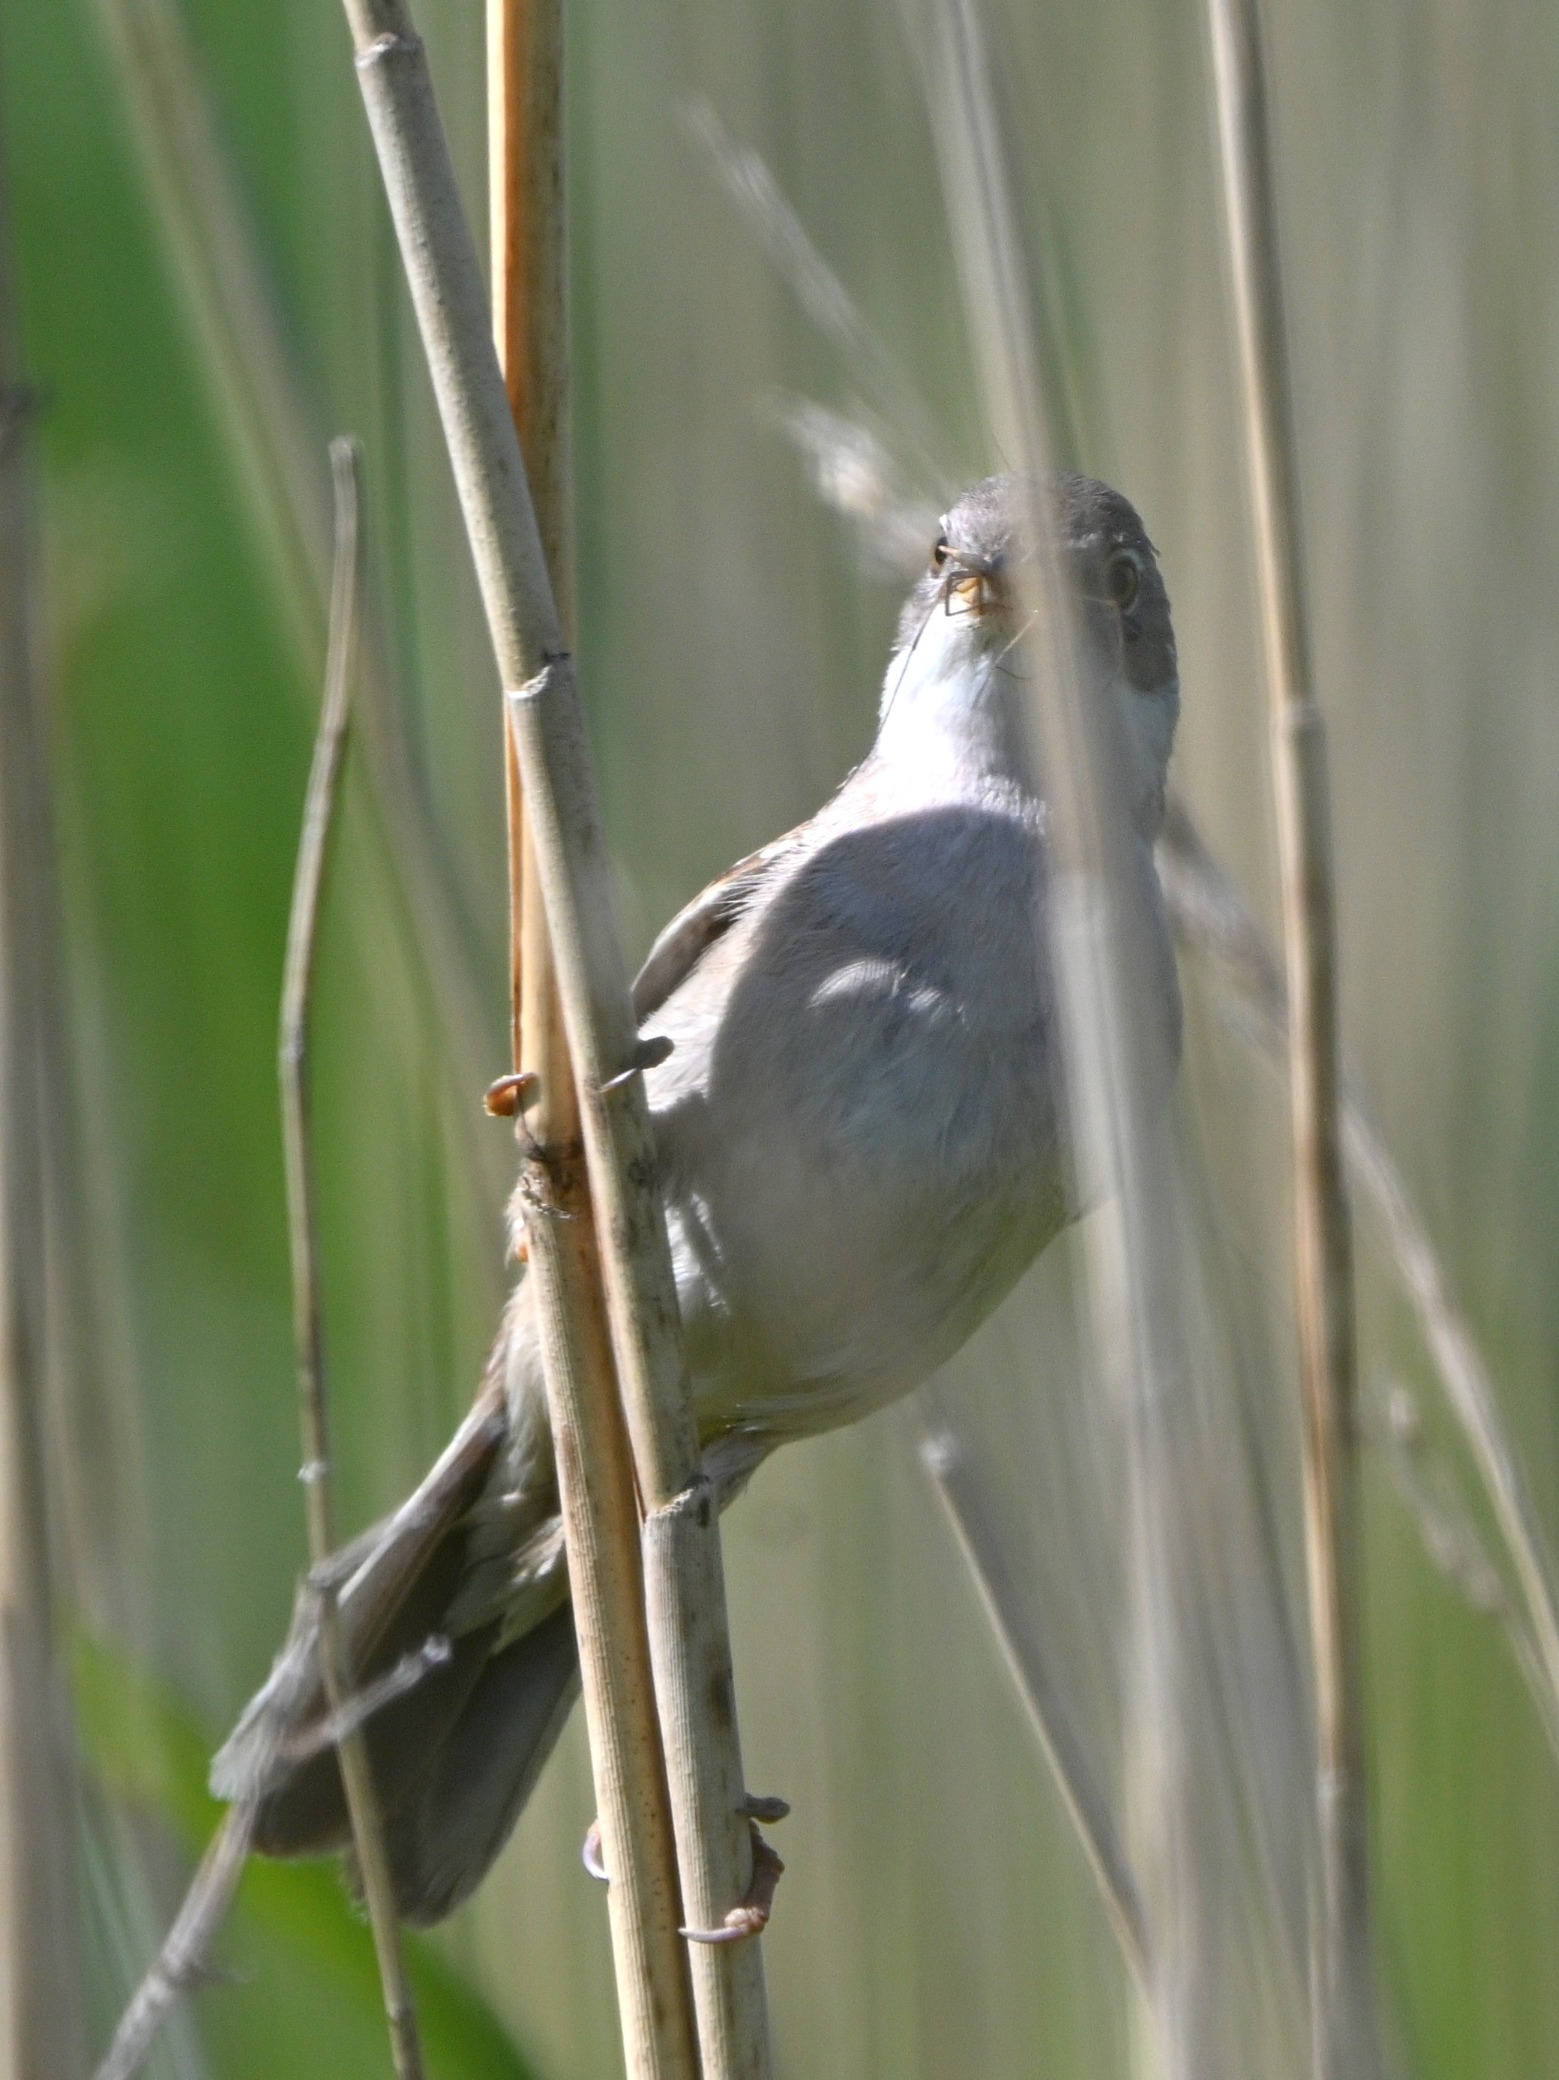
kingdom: Animalia
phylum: Chordata
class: Aves
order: Passeriformes
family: Sylviidae
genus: Sylvia
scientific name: Sylvia communis
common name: Tornsanger
